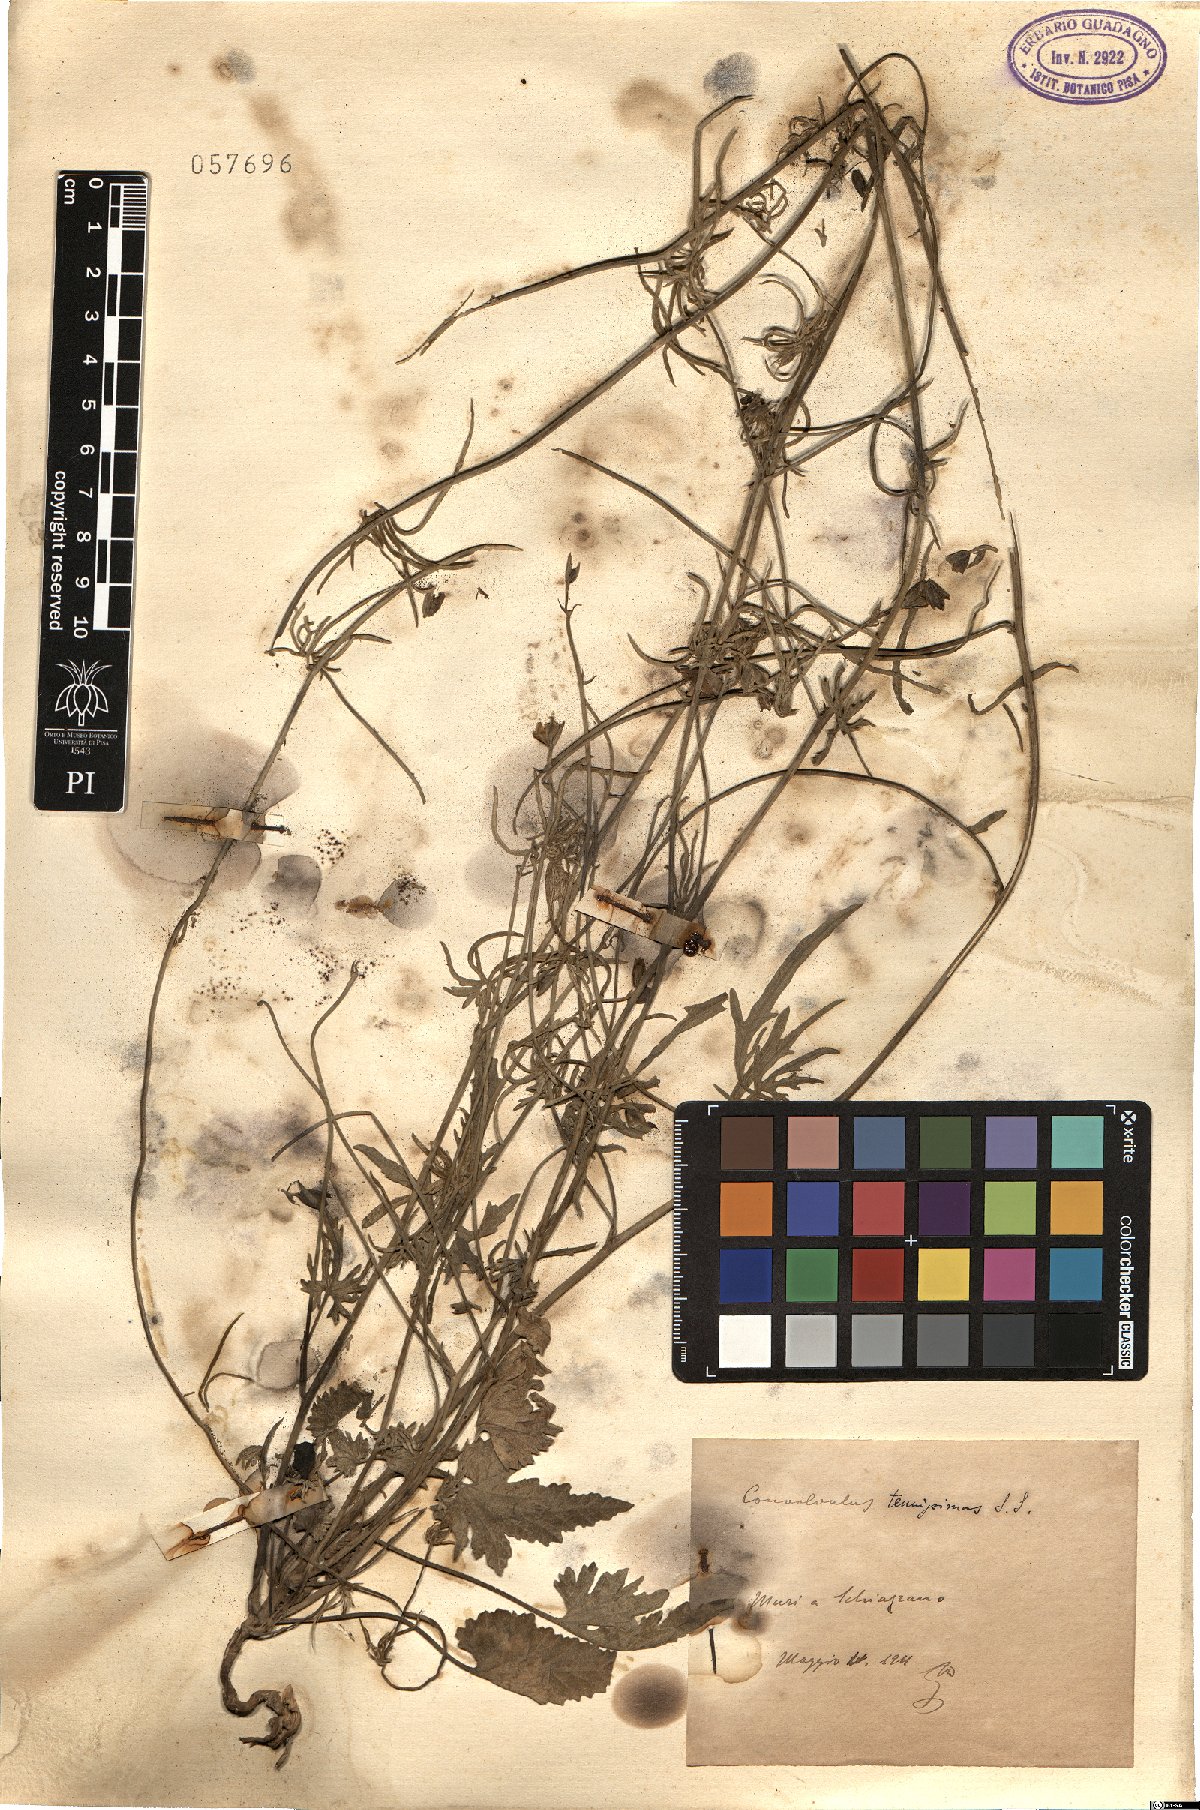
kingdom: Plantae
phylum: Tracheophyta
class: Magnoliopsida
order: Solanales
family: Convolvulaceae
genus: Convolvulus
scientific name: Convolvulus elegantissimus
